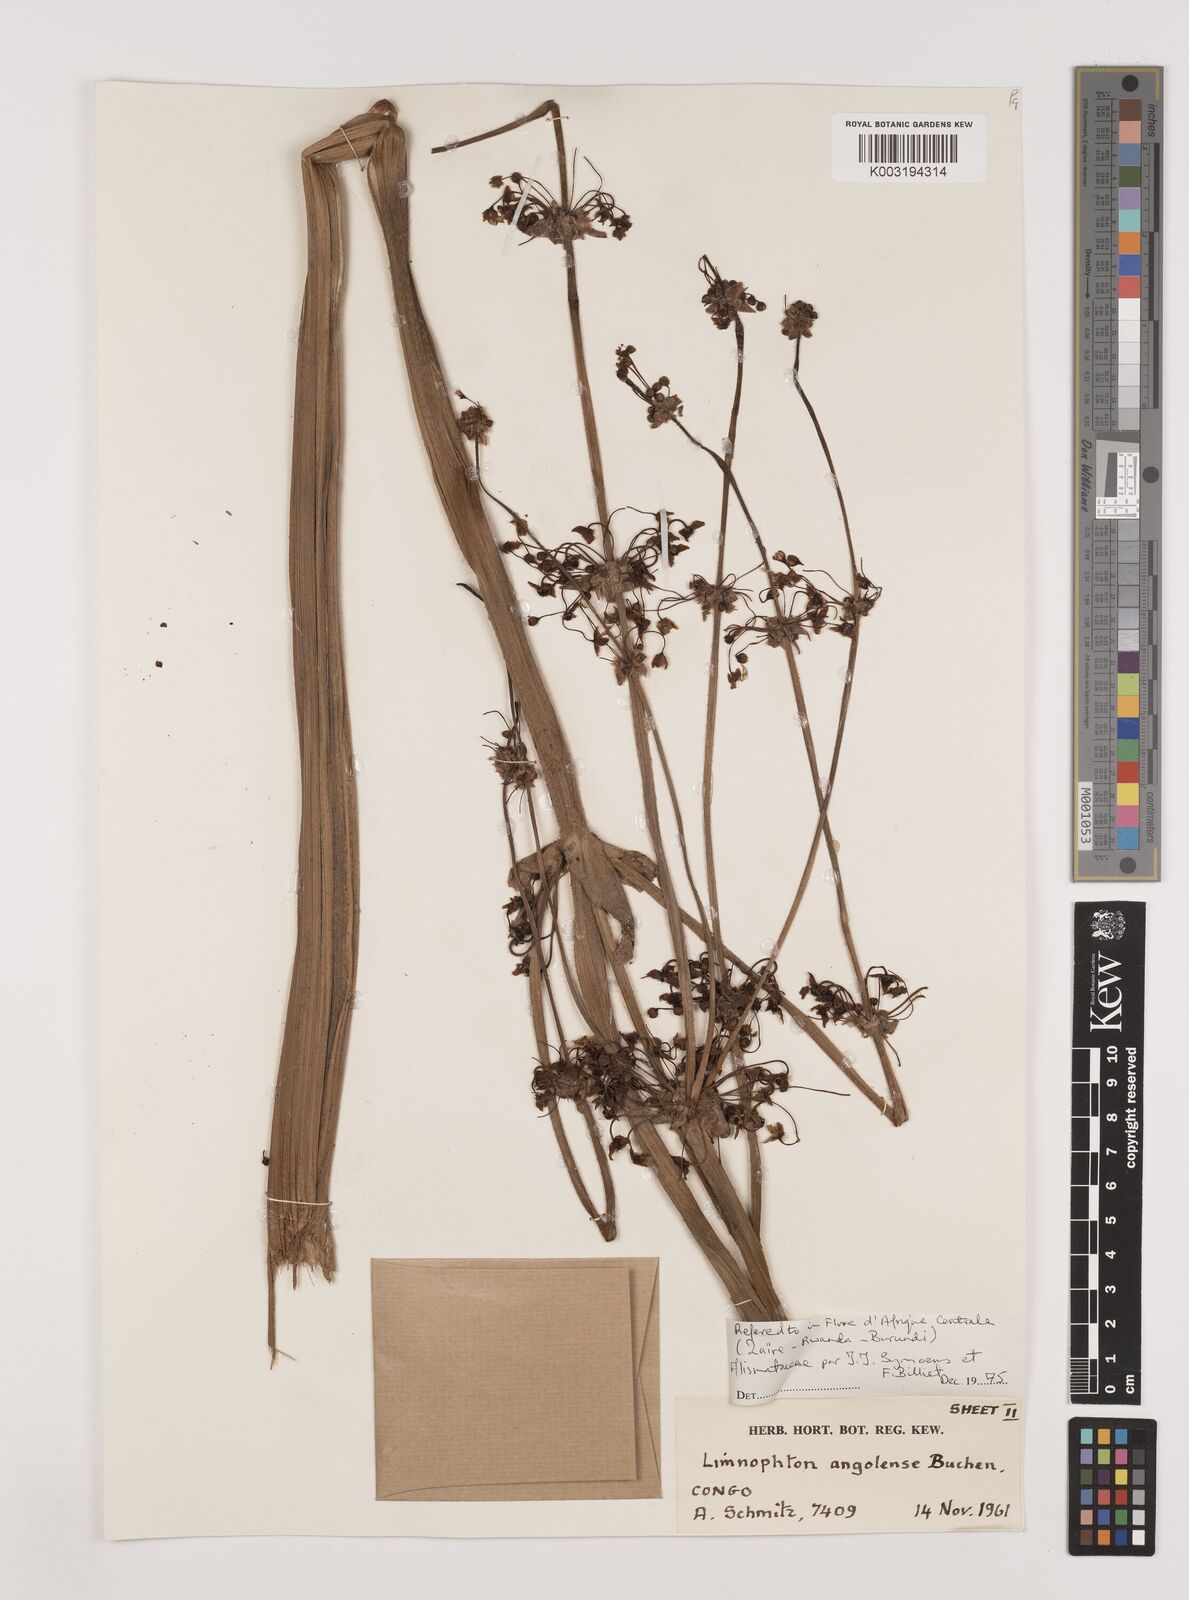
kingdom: Plantae
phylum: Tracheophyta
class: Liliopsida
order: Alismatales
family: Alismataceae
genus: Limnophyton
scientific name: Limnophyton angolense
